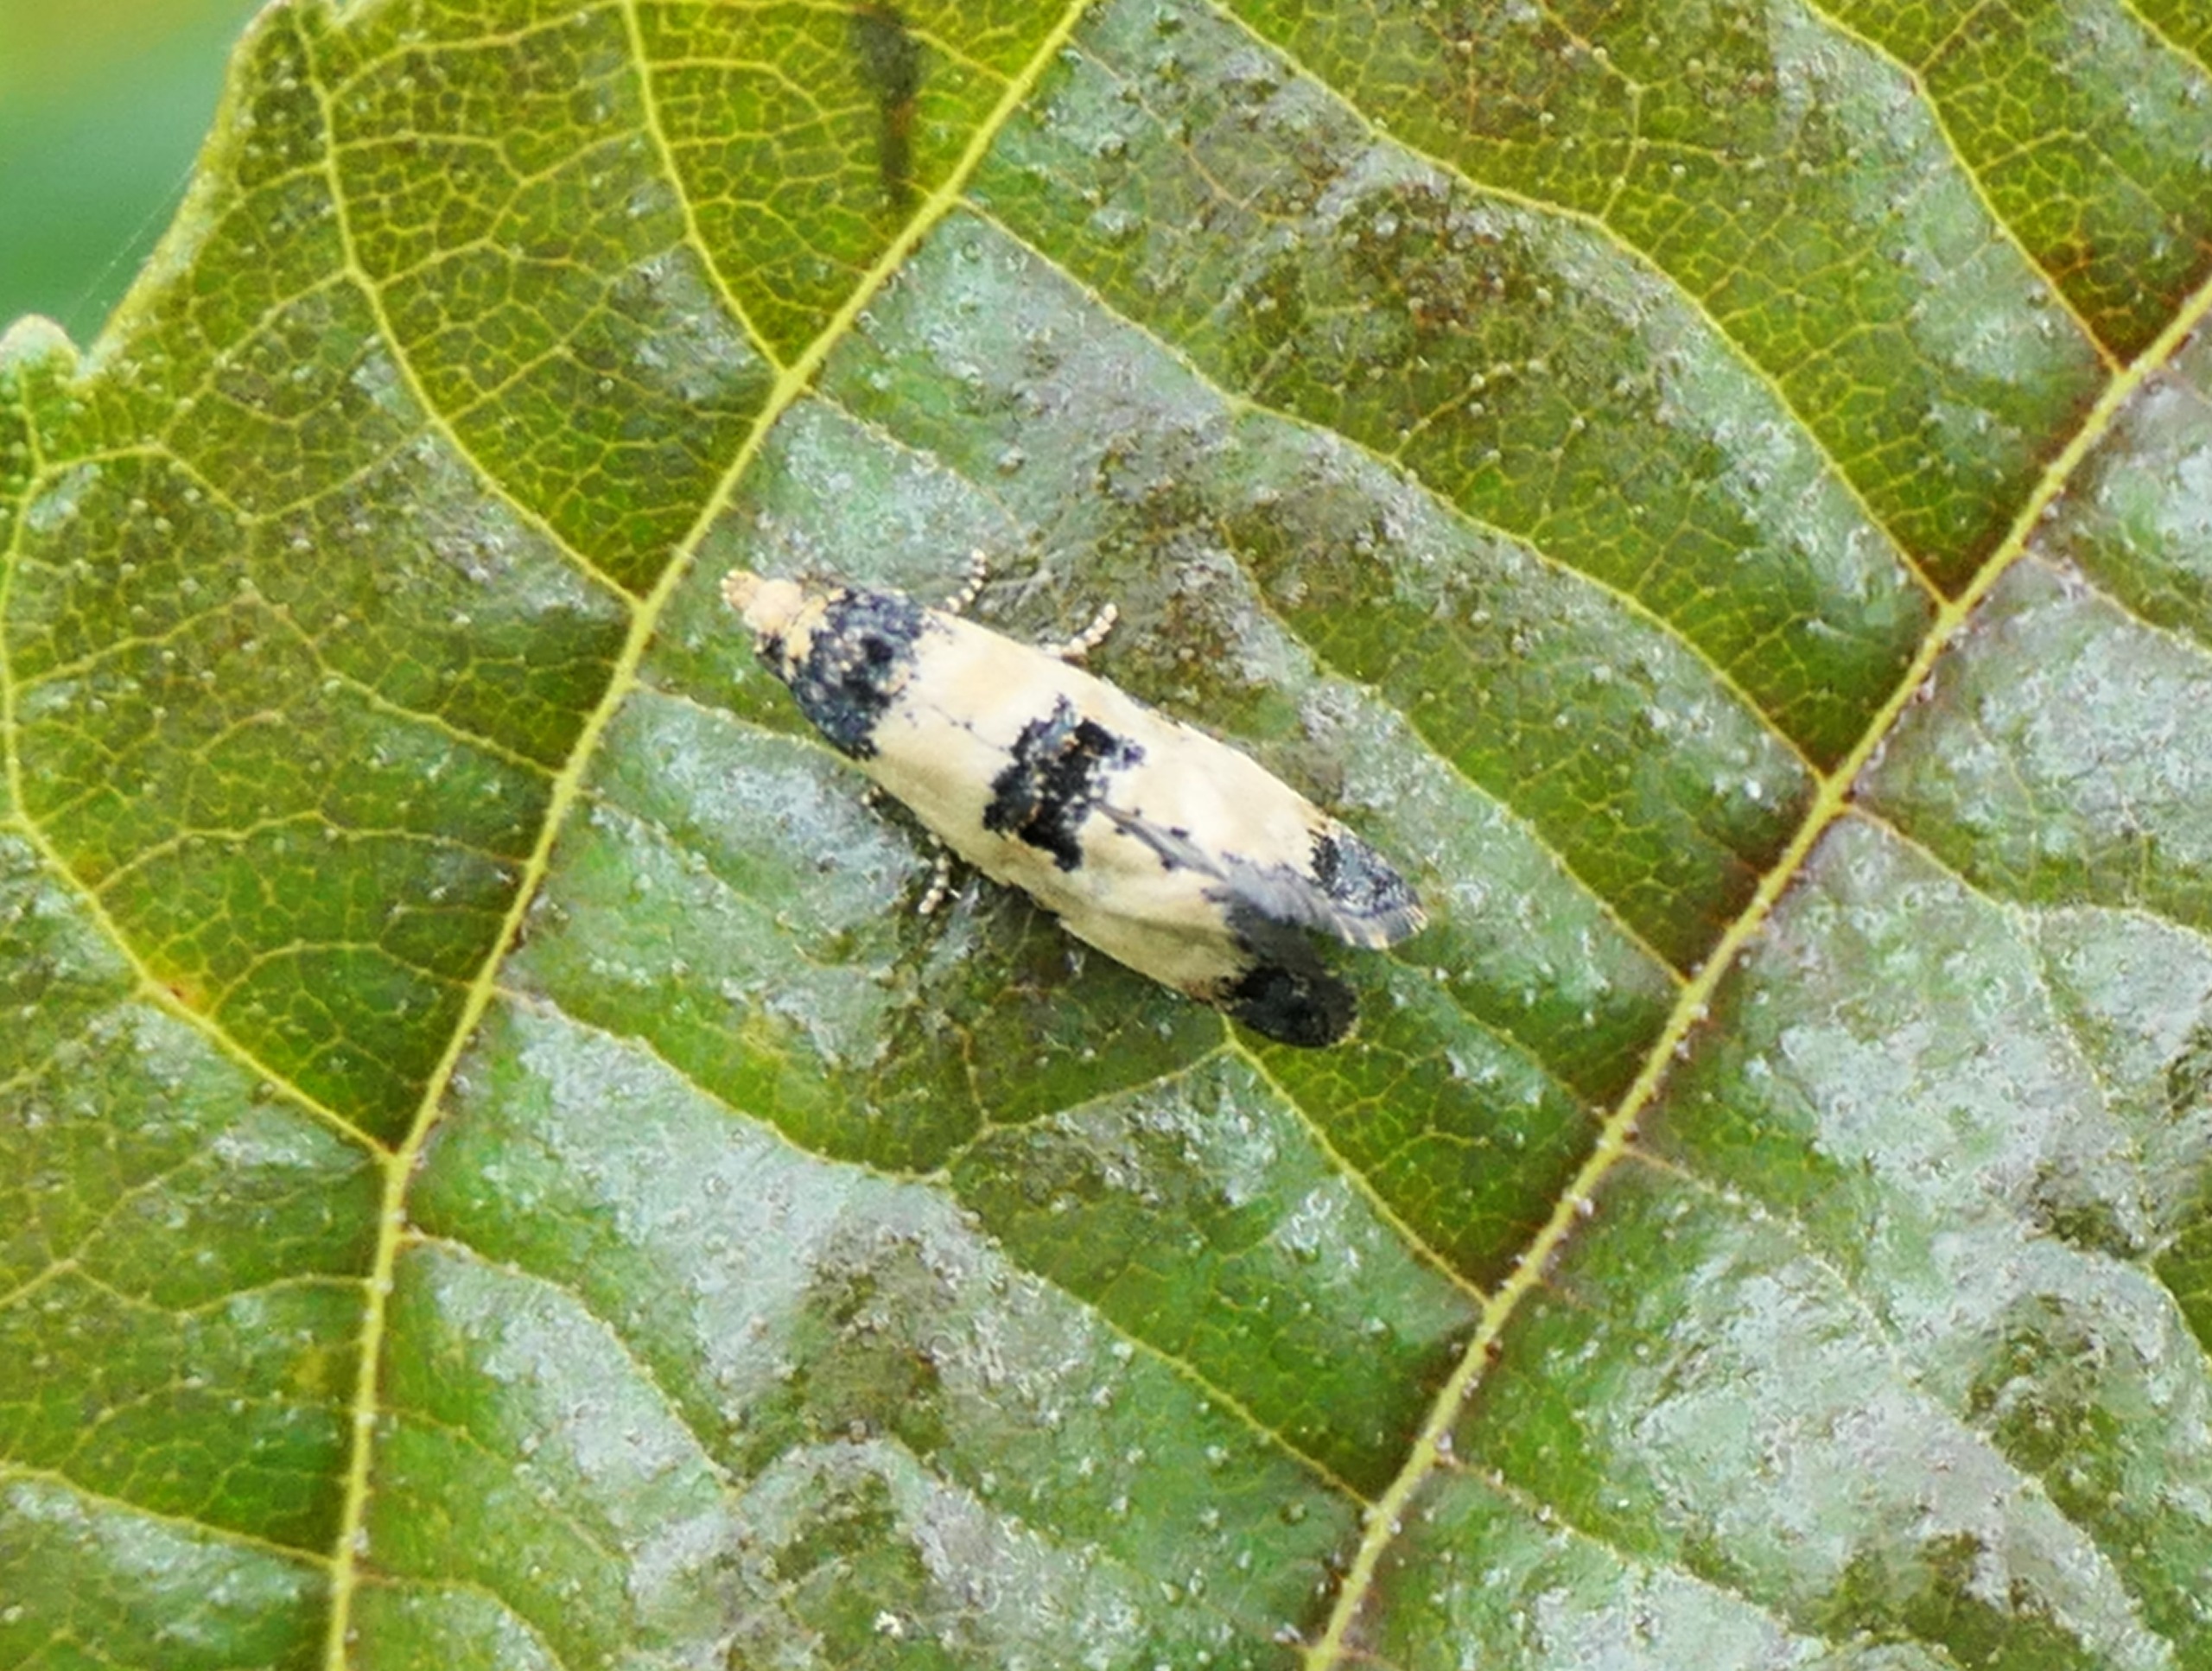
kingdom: Animalia
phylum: Arthropoda
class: Insecta
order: Lepidoptera
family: Tortricidae
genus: Cochylis
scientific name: Cochylis dubitana
